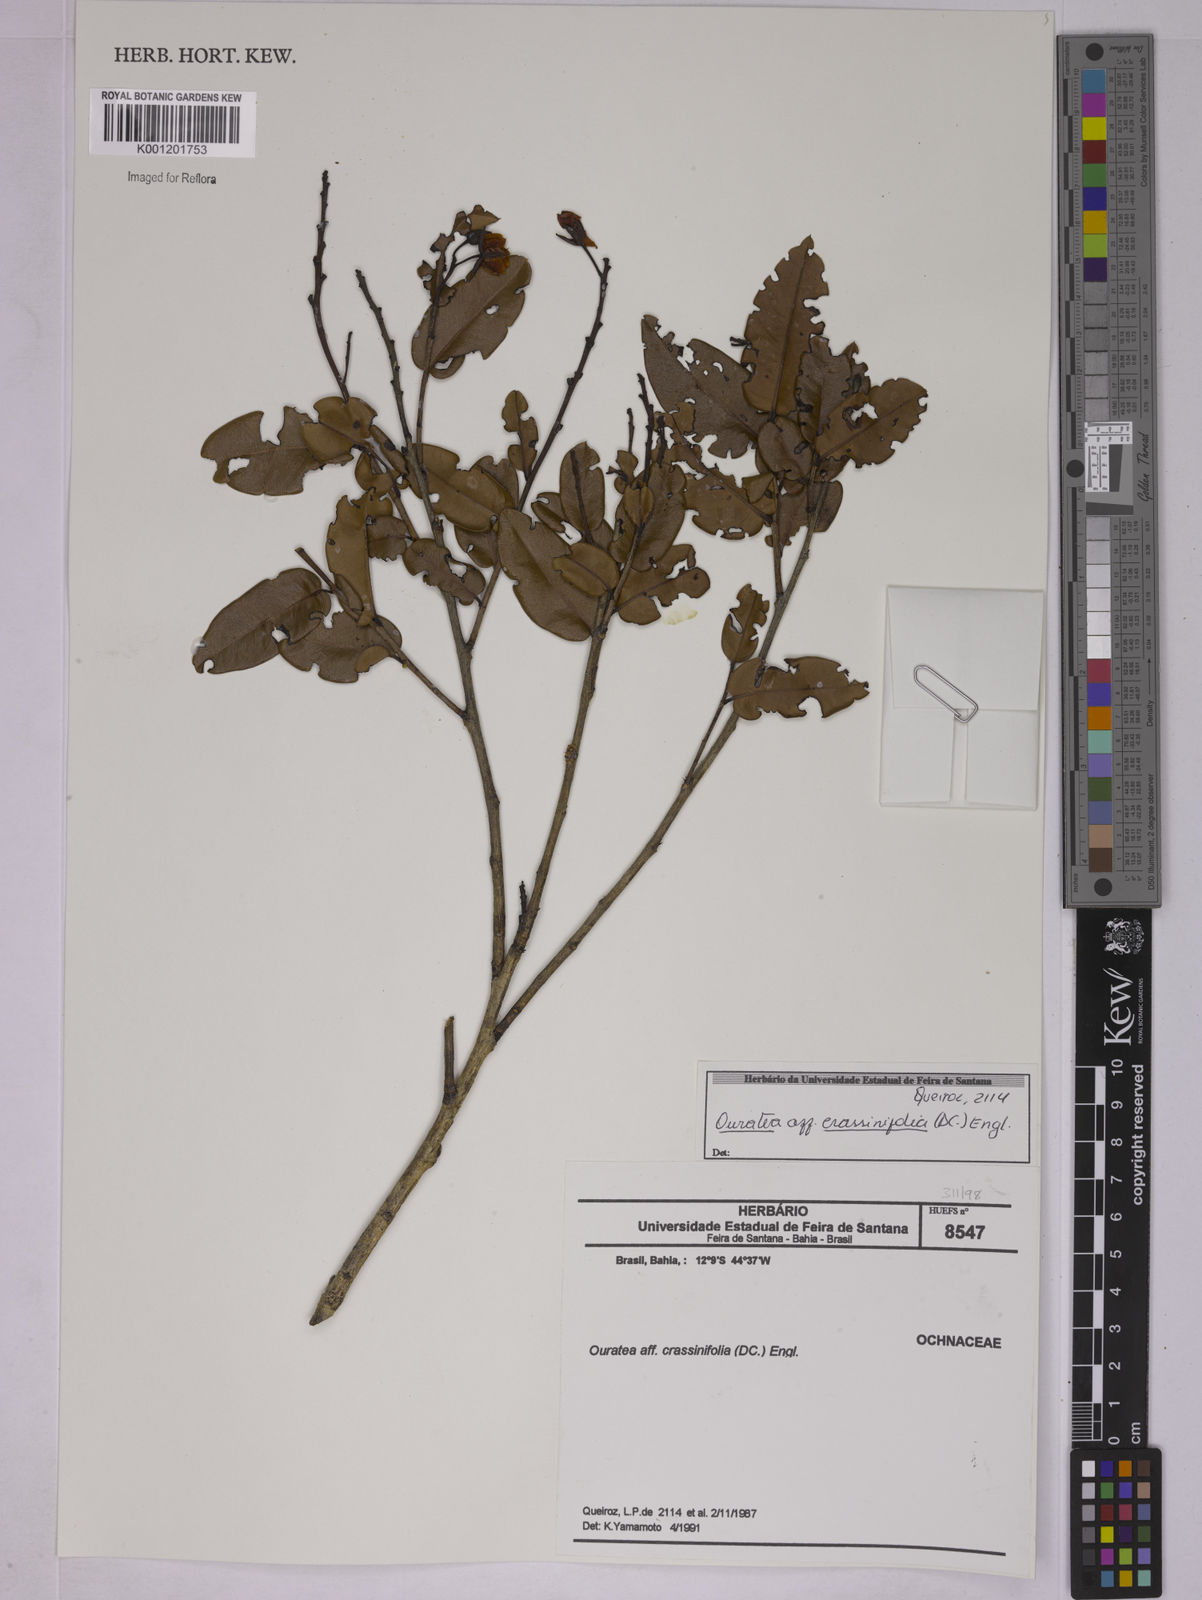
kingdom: Plantae
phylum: Tracheophyta
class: Magnoliopsida
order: Malpighiales
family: Ochnaceae
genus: Ouratea
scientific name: Ouratea
